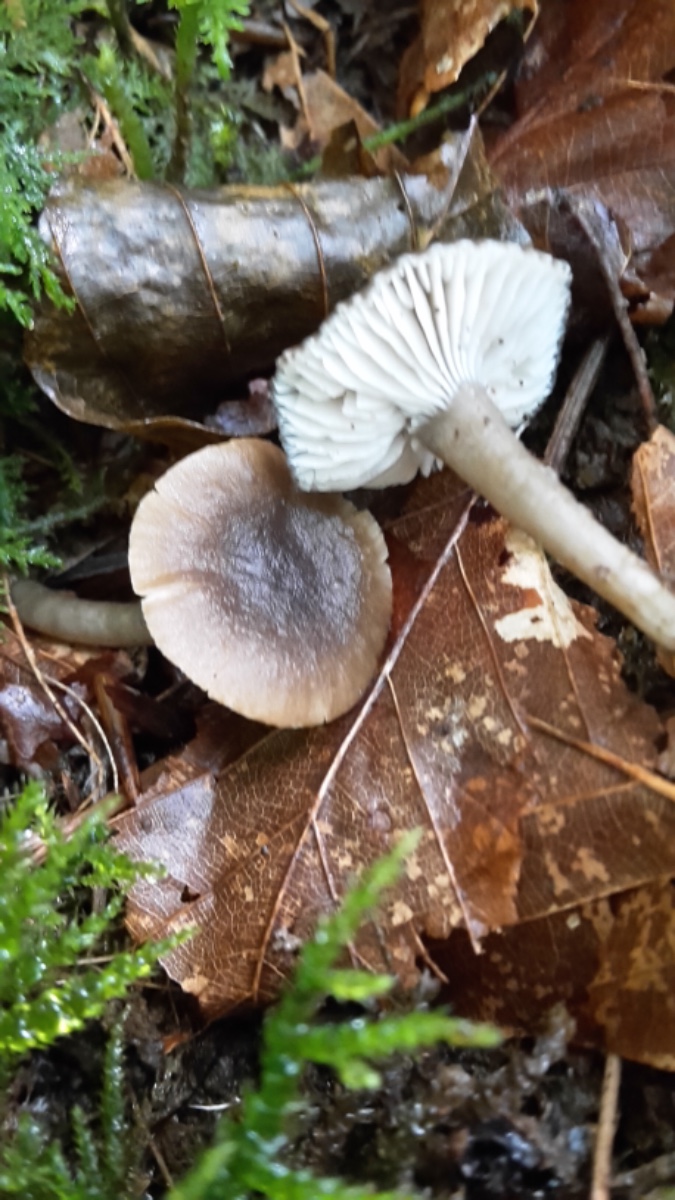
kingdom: Fungi
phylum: Basidiomycota
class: Agaricomycetes
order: Agaricales
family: Clavariaceae
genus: Camarophyllopsis
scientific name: Camarophyllopsis atrovelutina
